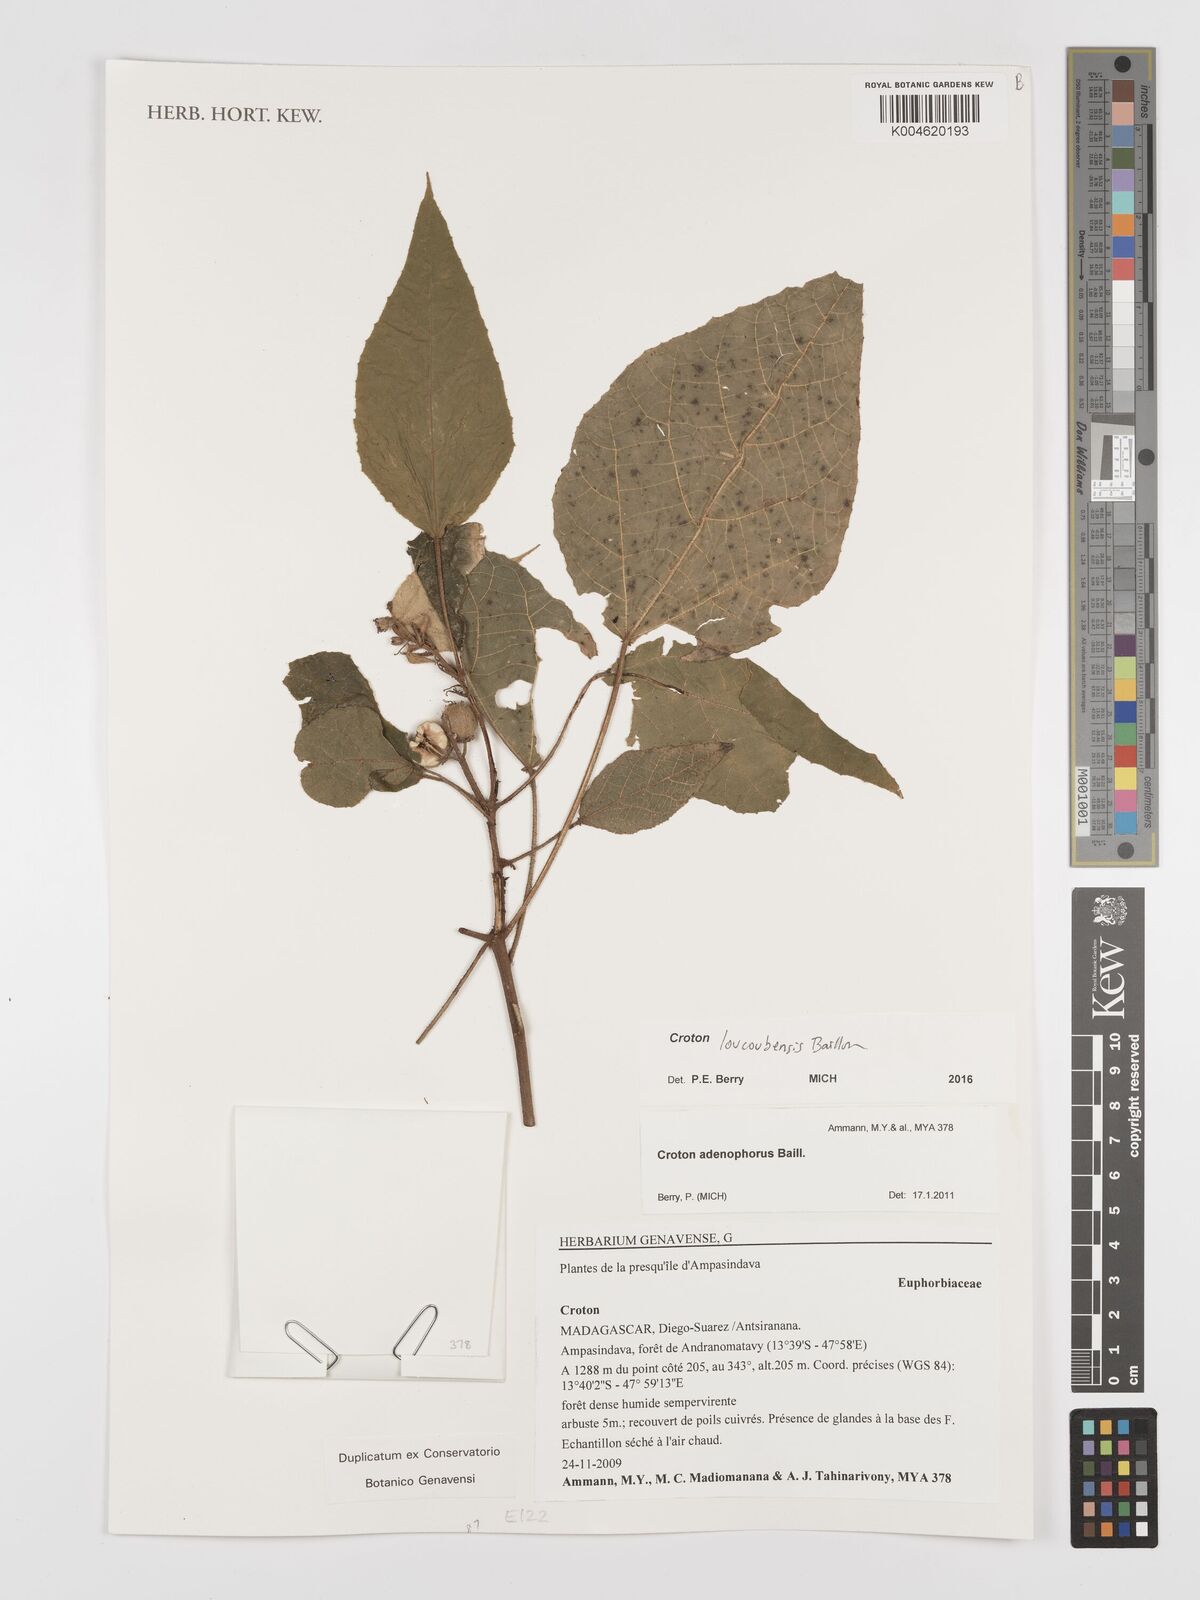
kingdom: Plantae
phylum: Tracheophyta
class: Magnoliopsida
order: Malpighiales
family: Euphorbiaceae
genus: Croton
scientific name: Croton loucoubensis
